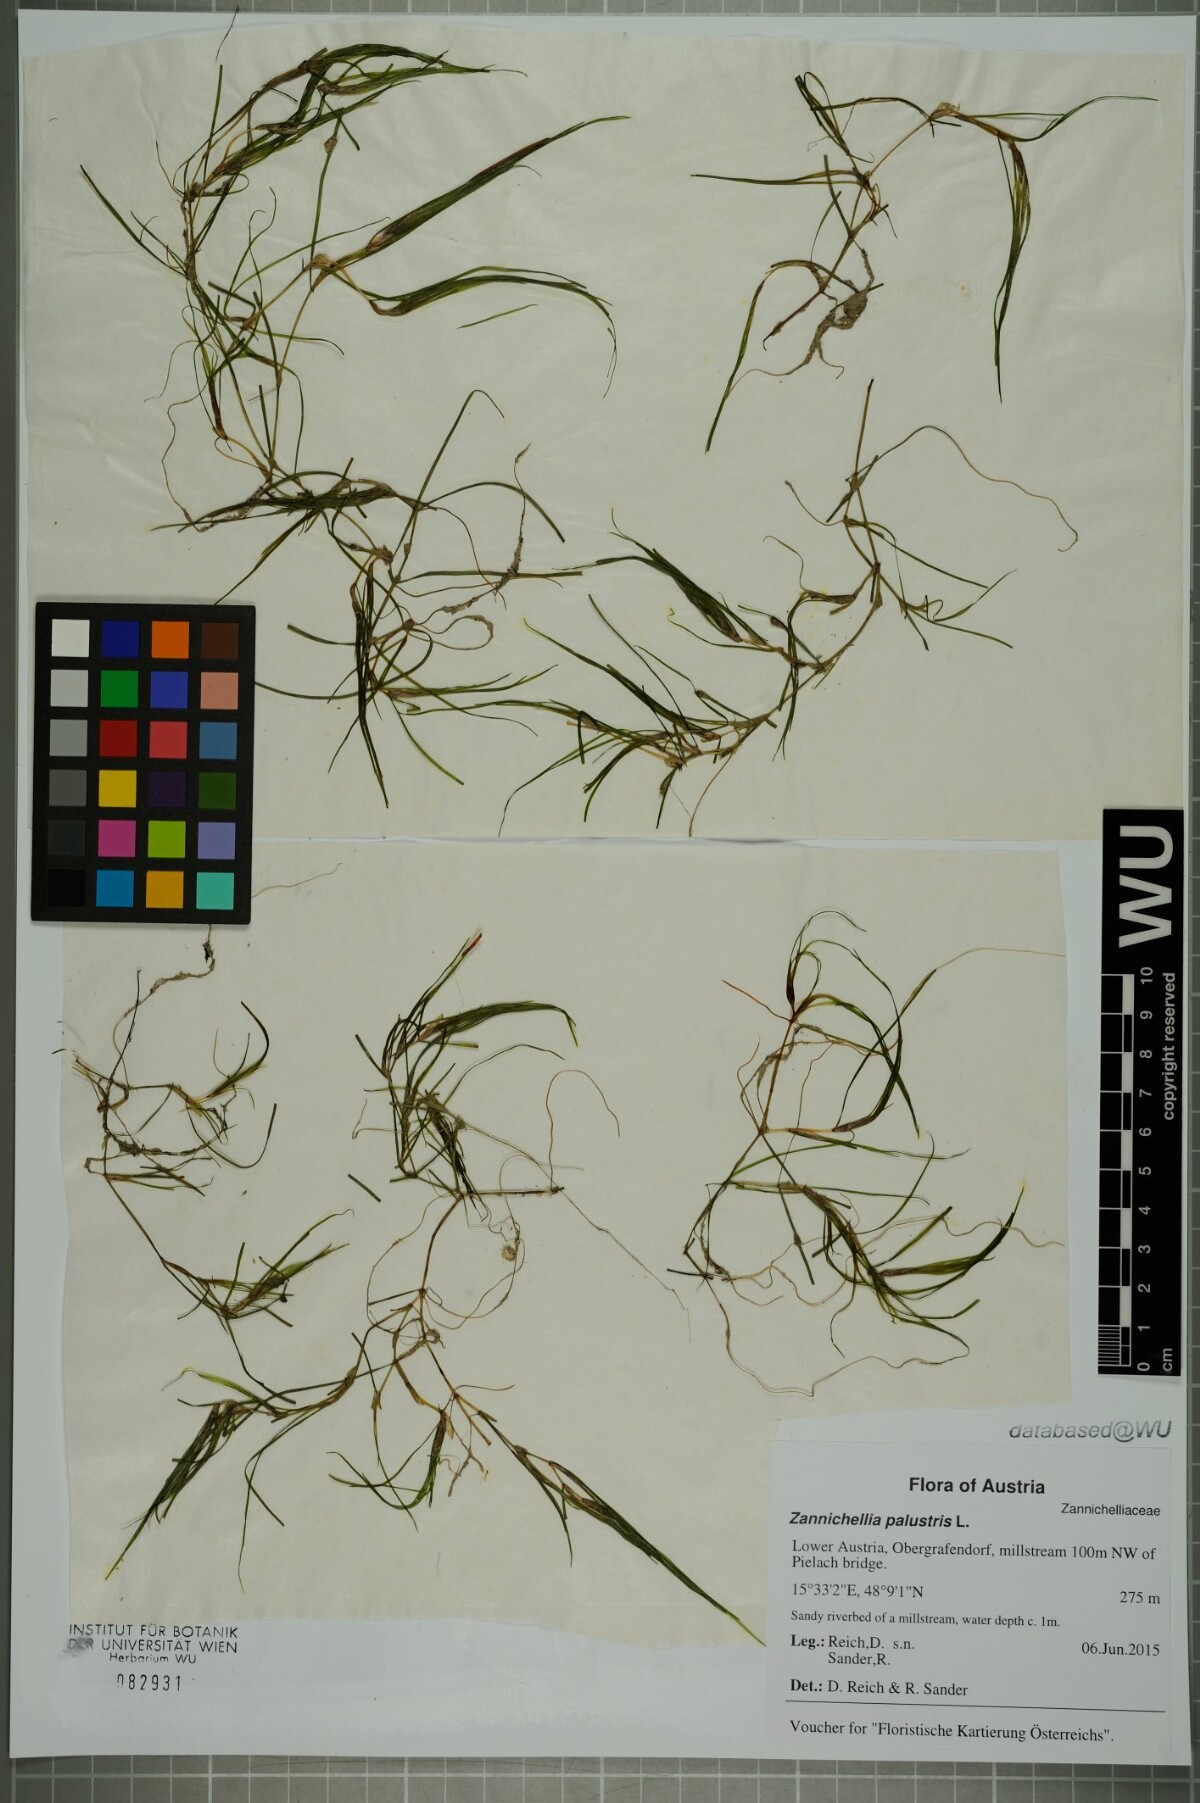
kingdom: Plantae
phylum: Tracheophyta
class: Liliopsida
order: Alismatales
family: Potamogetonaceae
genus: Zannichellia
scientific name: Zannichellia palustris
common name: Horned pondweed
